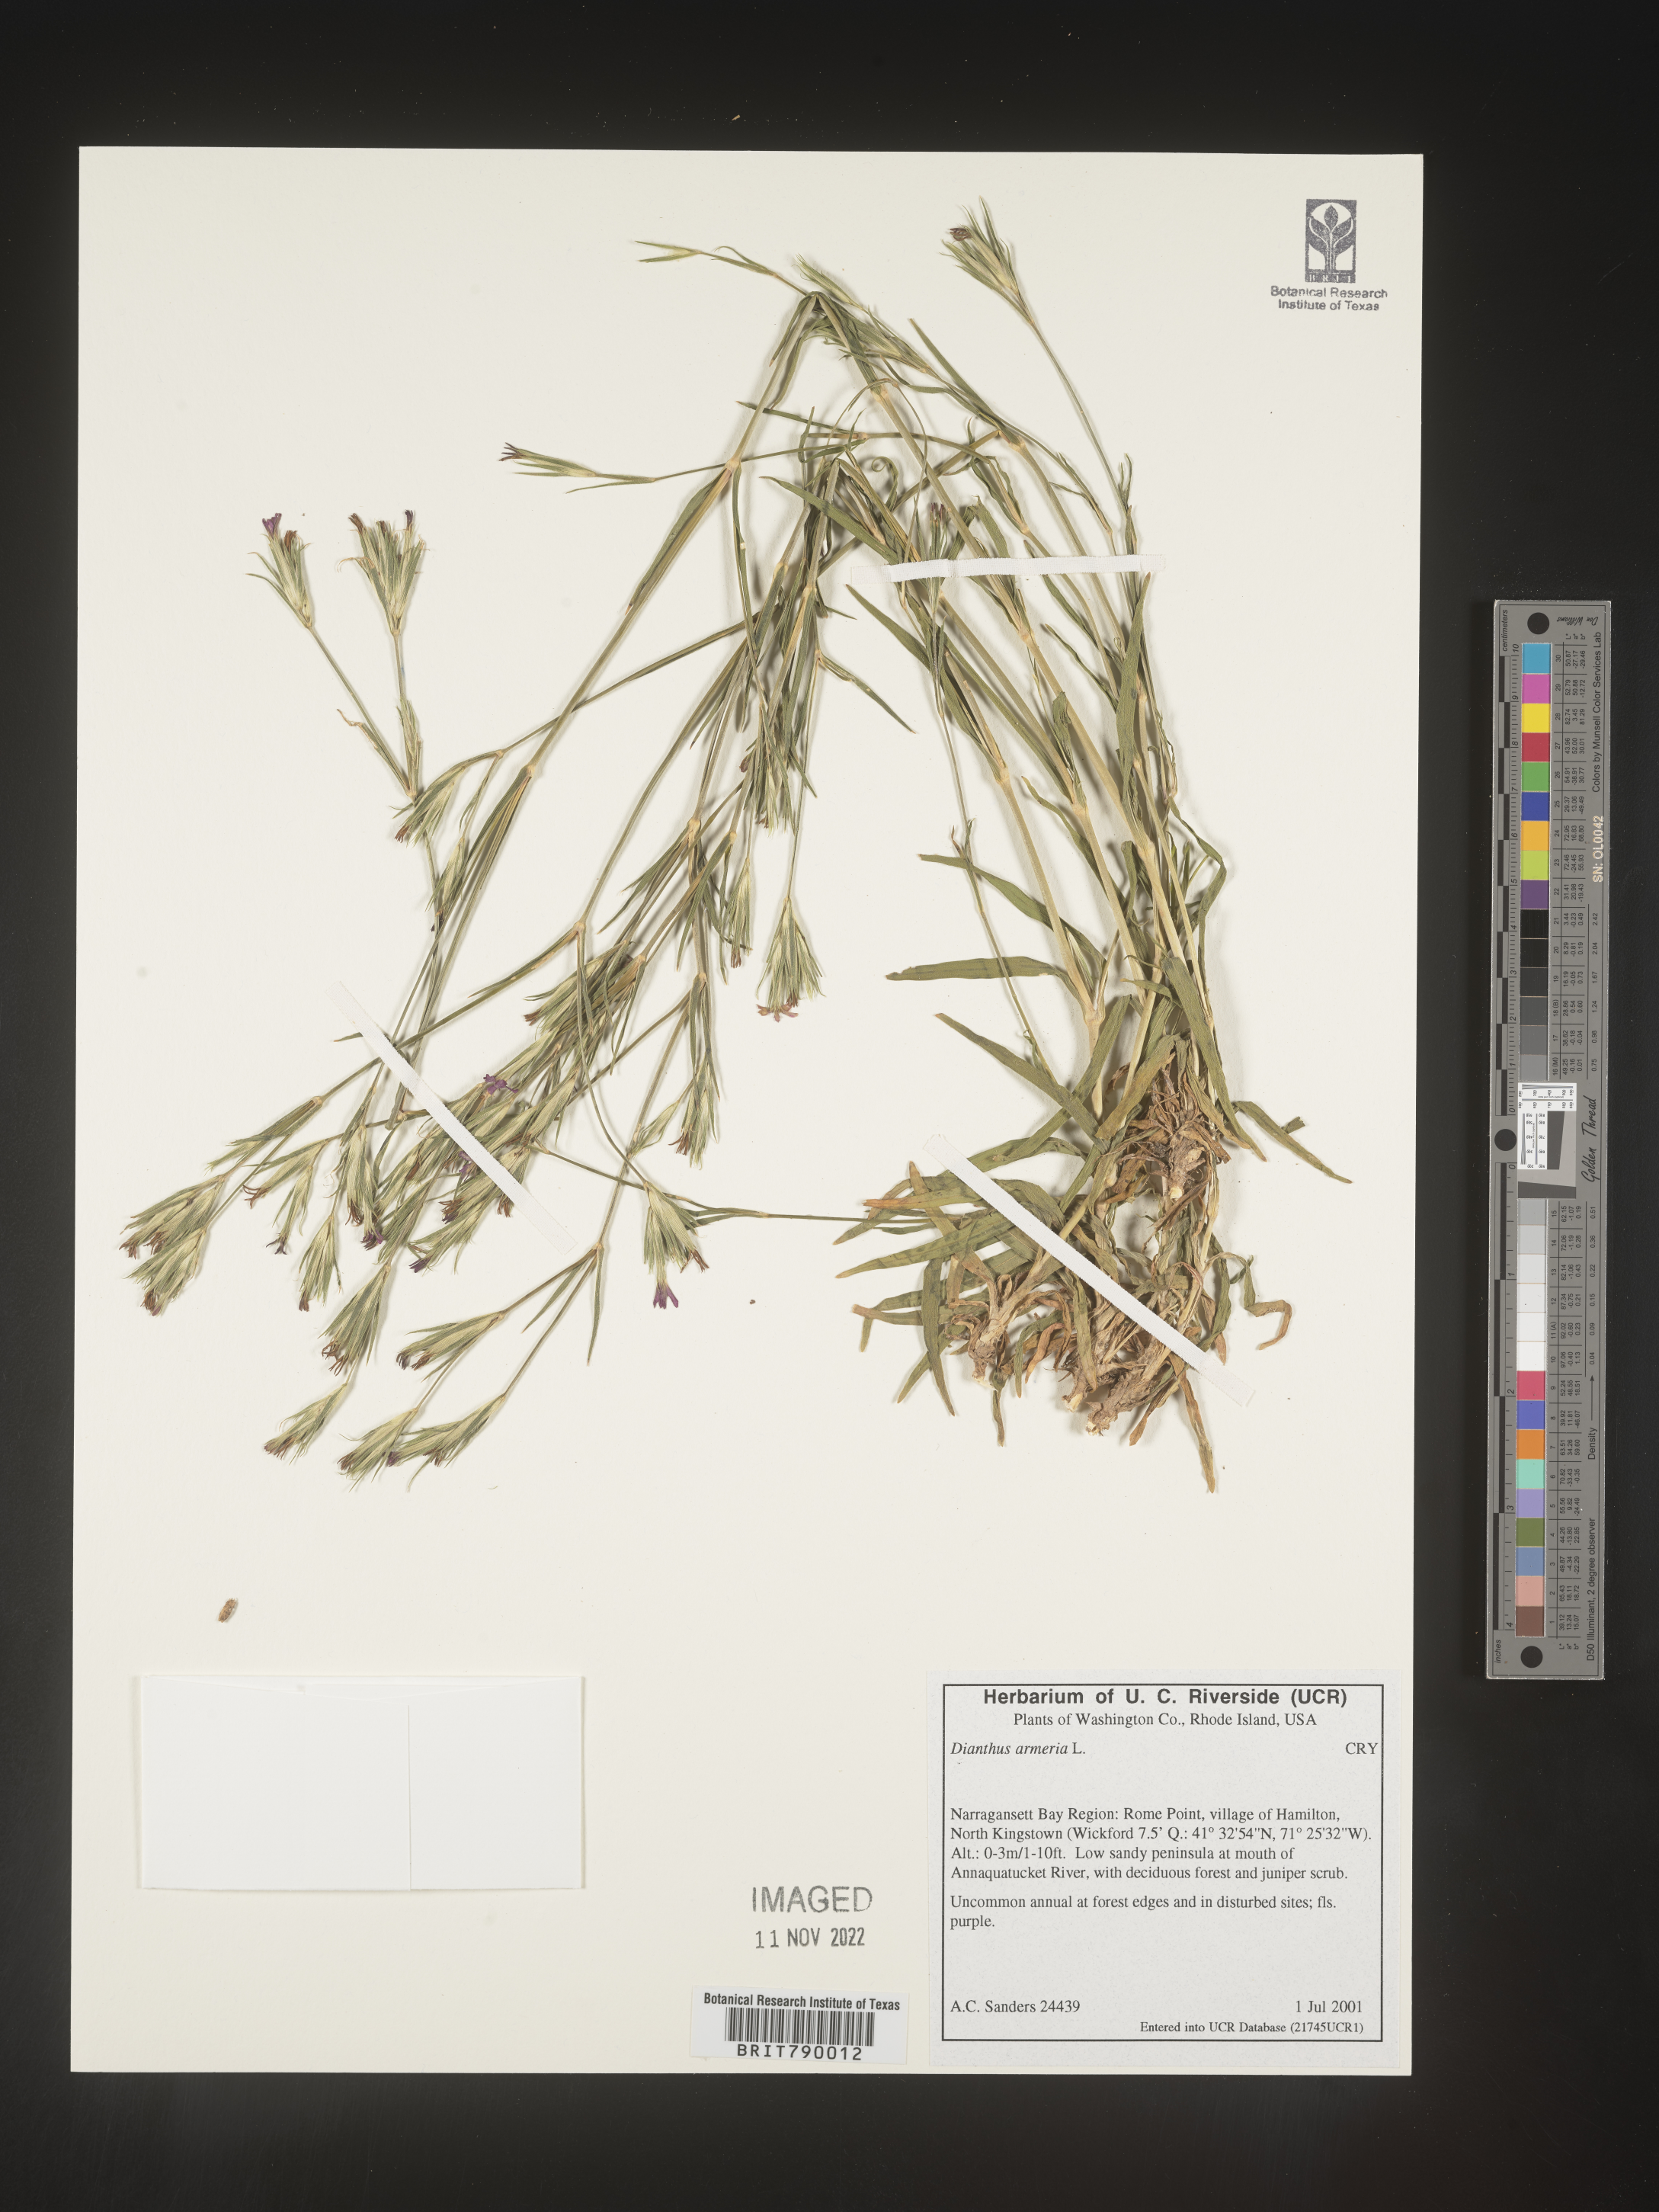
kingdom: Plantae
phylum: Tracheophyta
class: Magnoliopsida
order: Caryophyllales
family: Caryophyllaceae
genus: Dianthus
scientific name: Dianthus armeria
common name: Deptford pink
